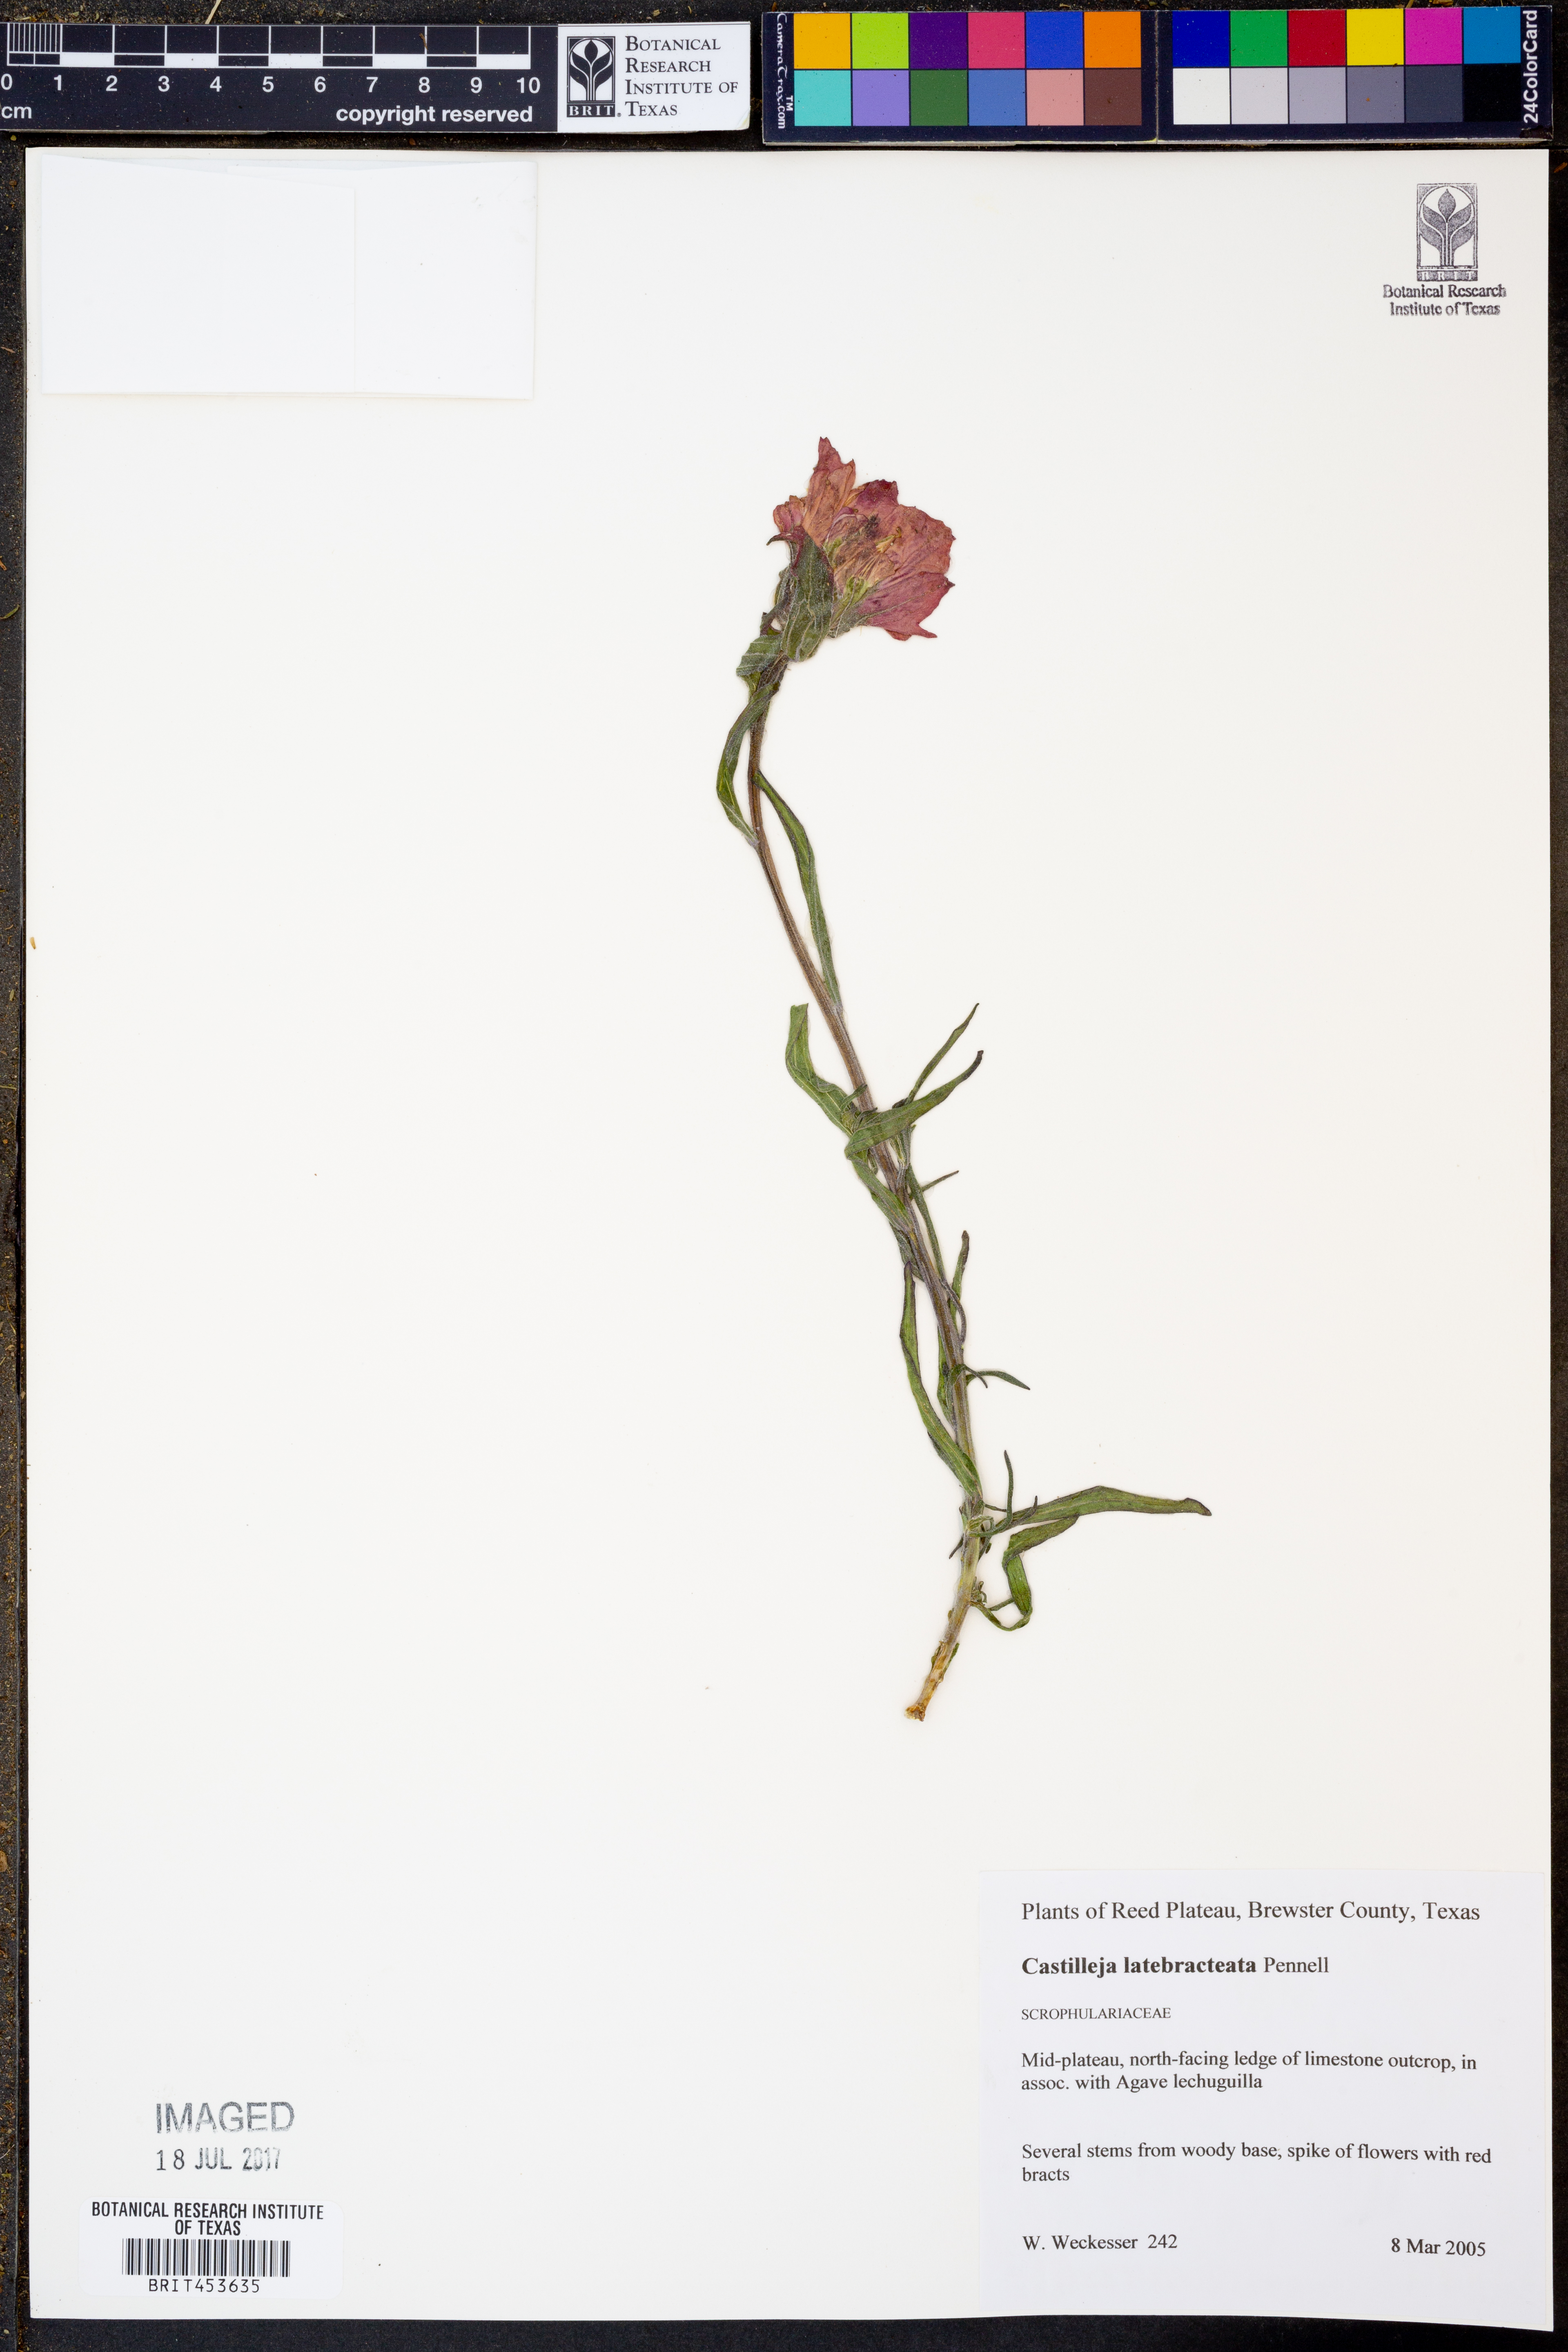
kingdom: Plantae
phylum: Tracheophyta
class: Magnoliopsida
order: Lamiales
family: Orobanchaceae
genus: Castilleja
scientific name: Castilleja rigida
